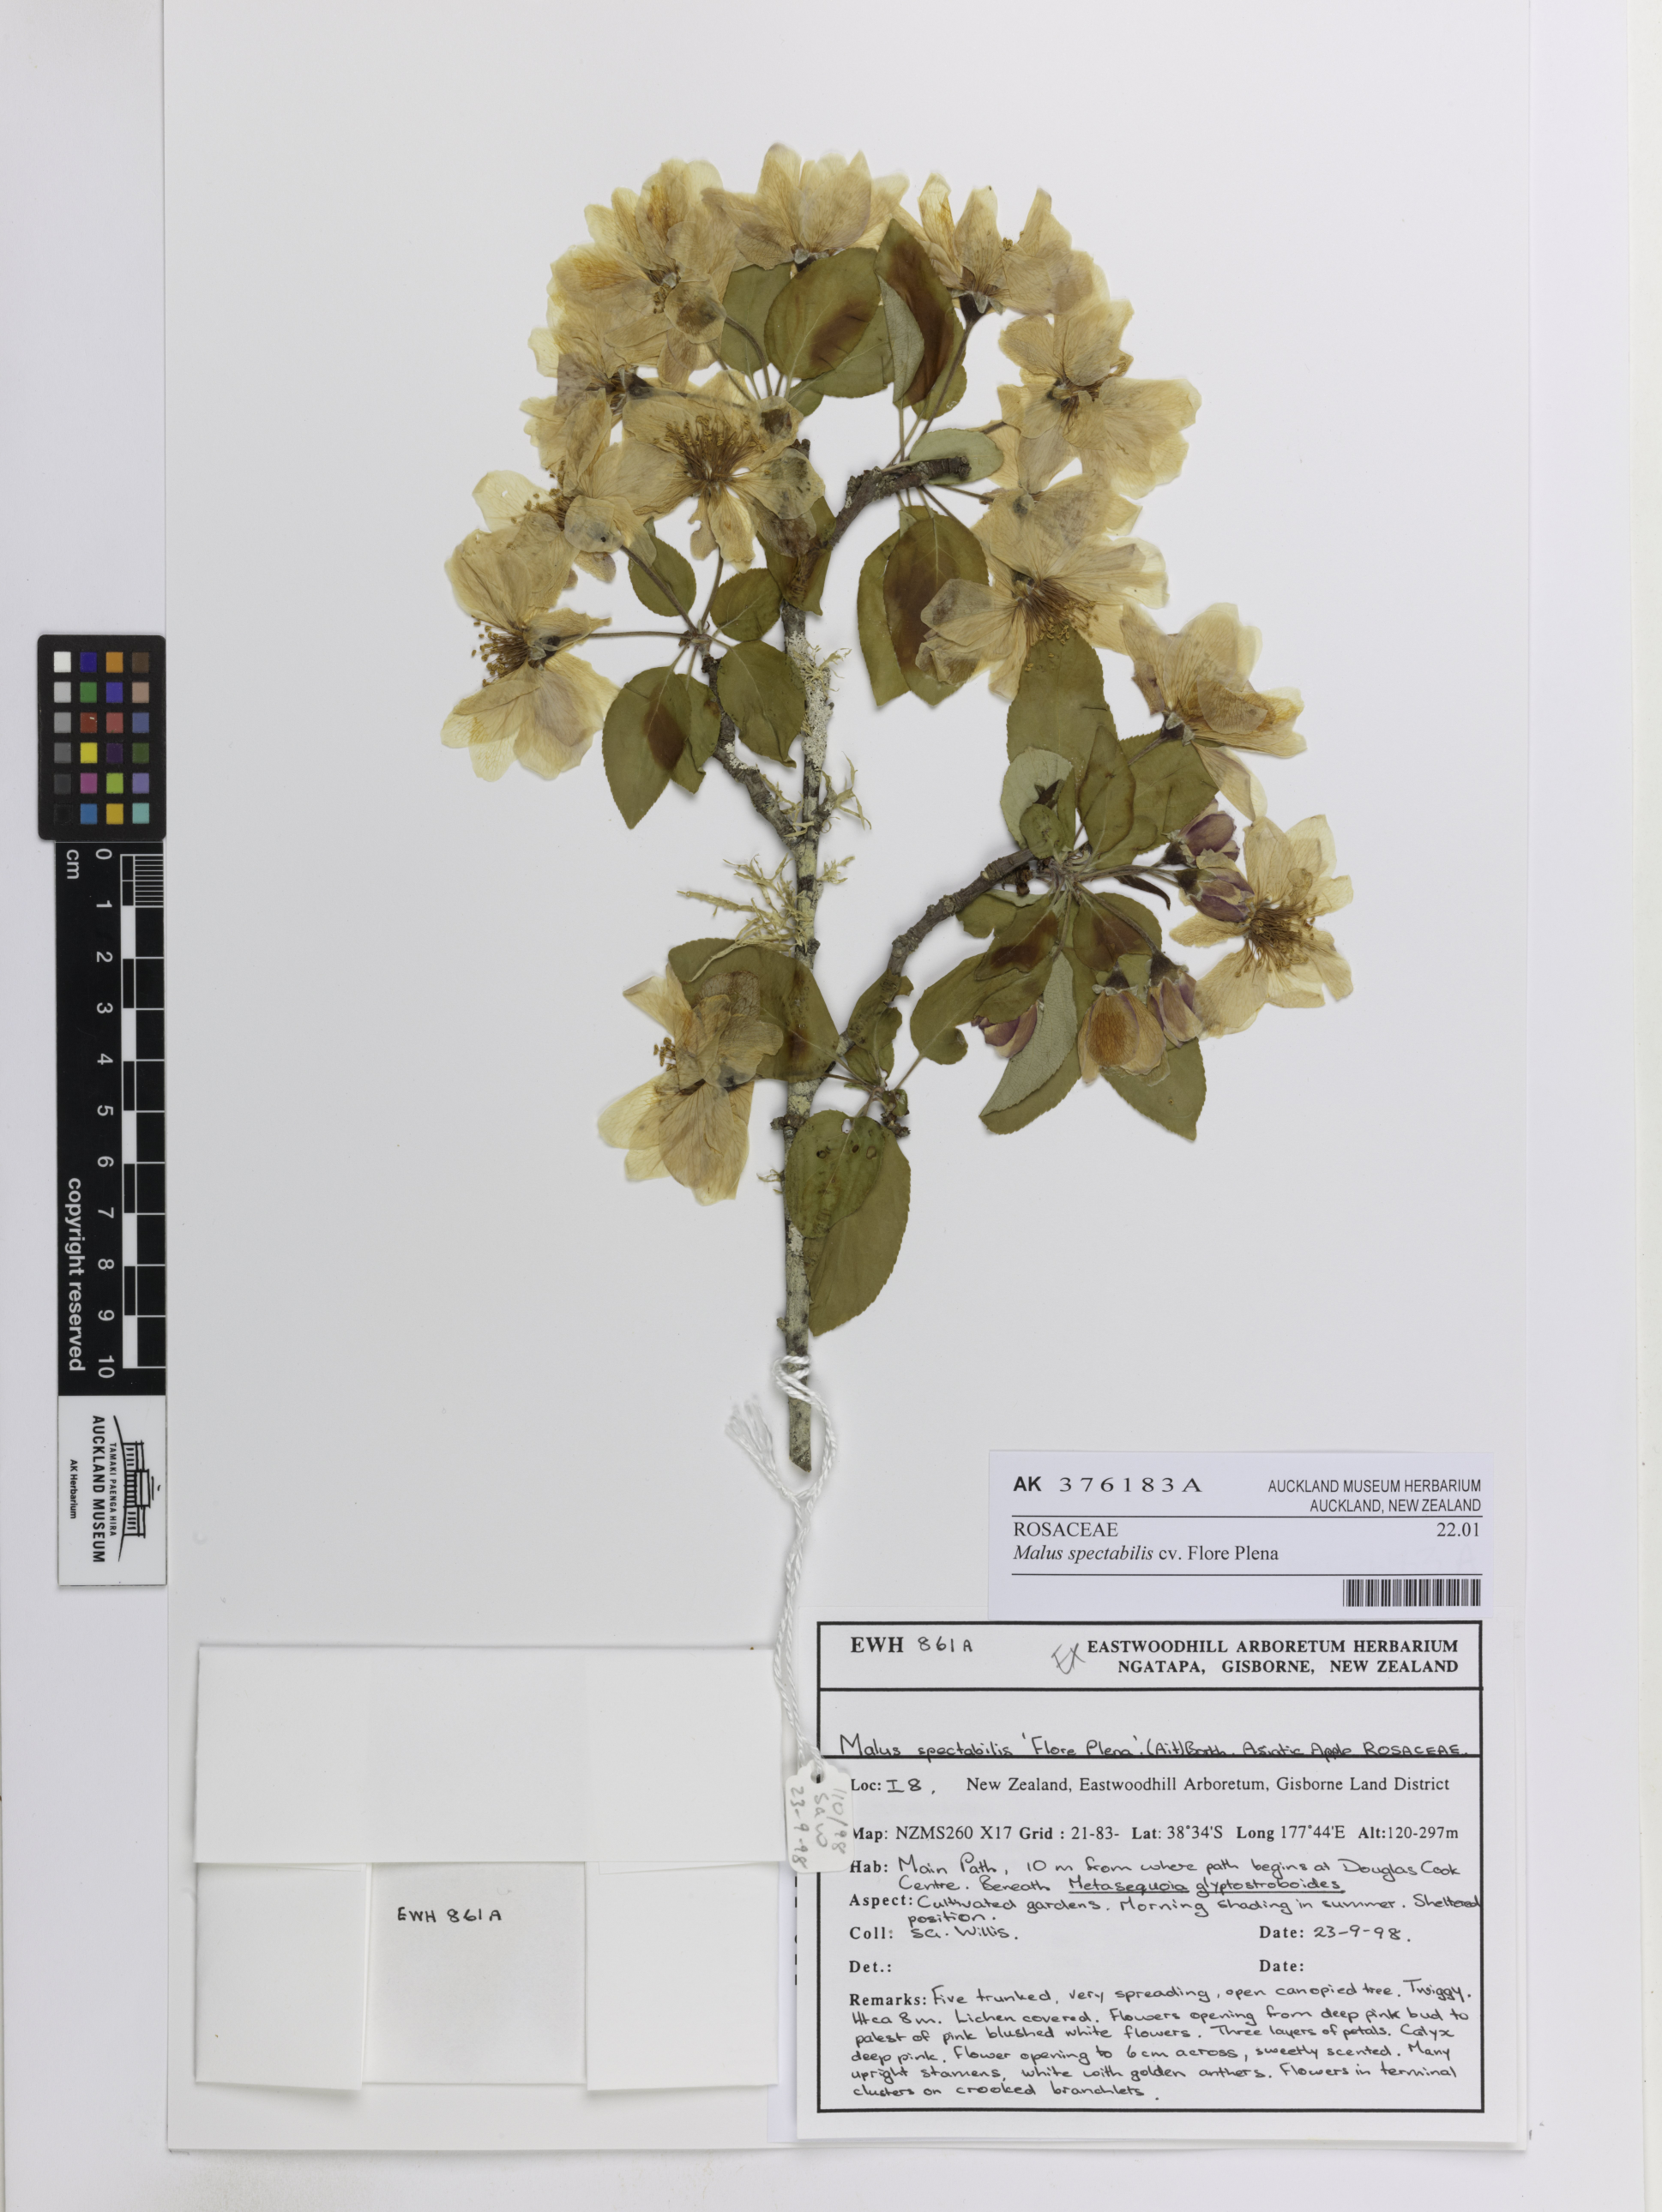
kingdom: Plantae
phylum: Tracheophyta
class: Magnoliopsida
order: Rosales
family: Rosaceae
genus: Malus
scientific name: Malus spectabilis
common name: Asiatic apple
